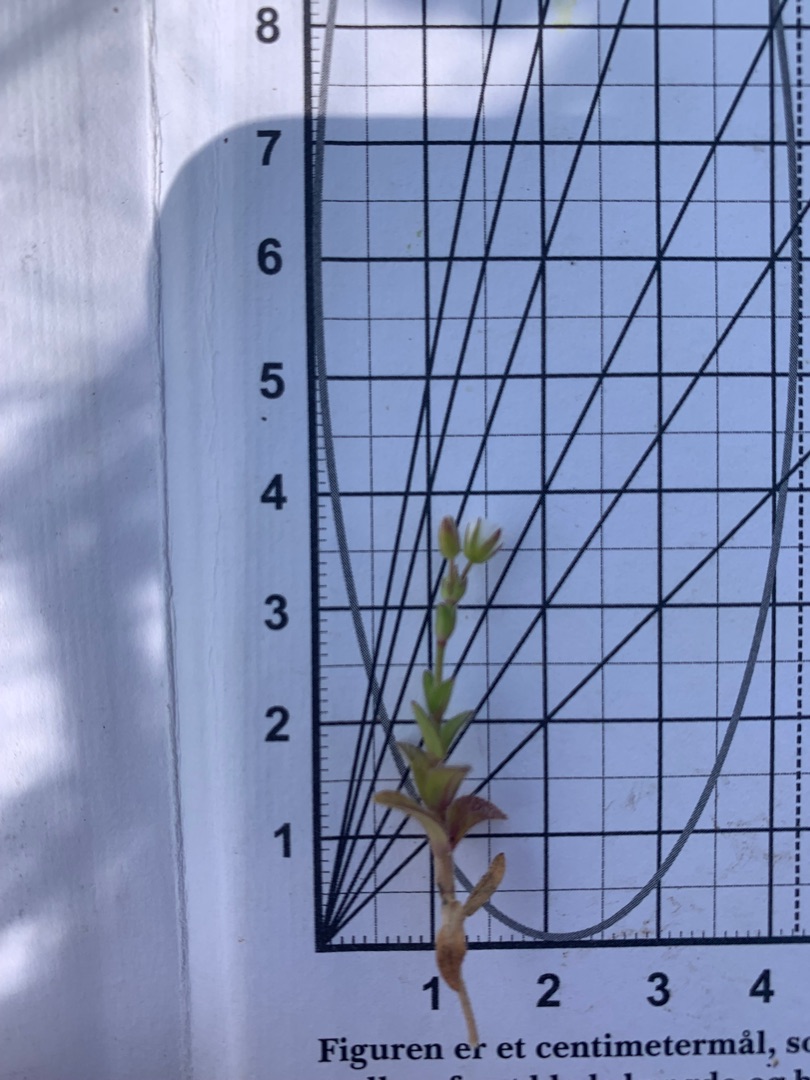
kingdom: Plantae
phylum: Tracheophyta
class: Magnoliopsida
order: Caryophyllales
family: Caryophyllaceae
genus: Cerastium
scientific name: Cerastium fontanum
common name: Almindelig hønsetarm
